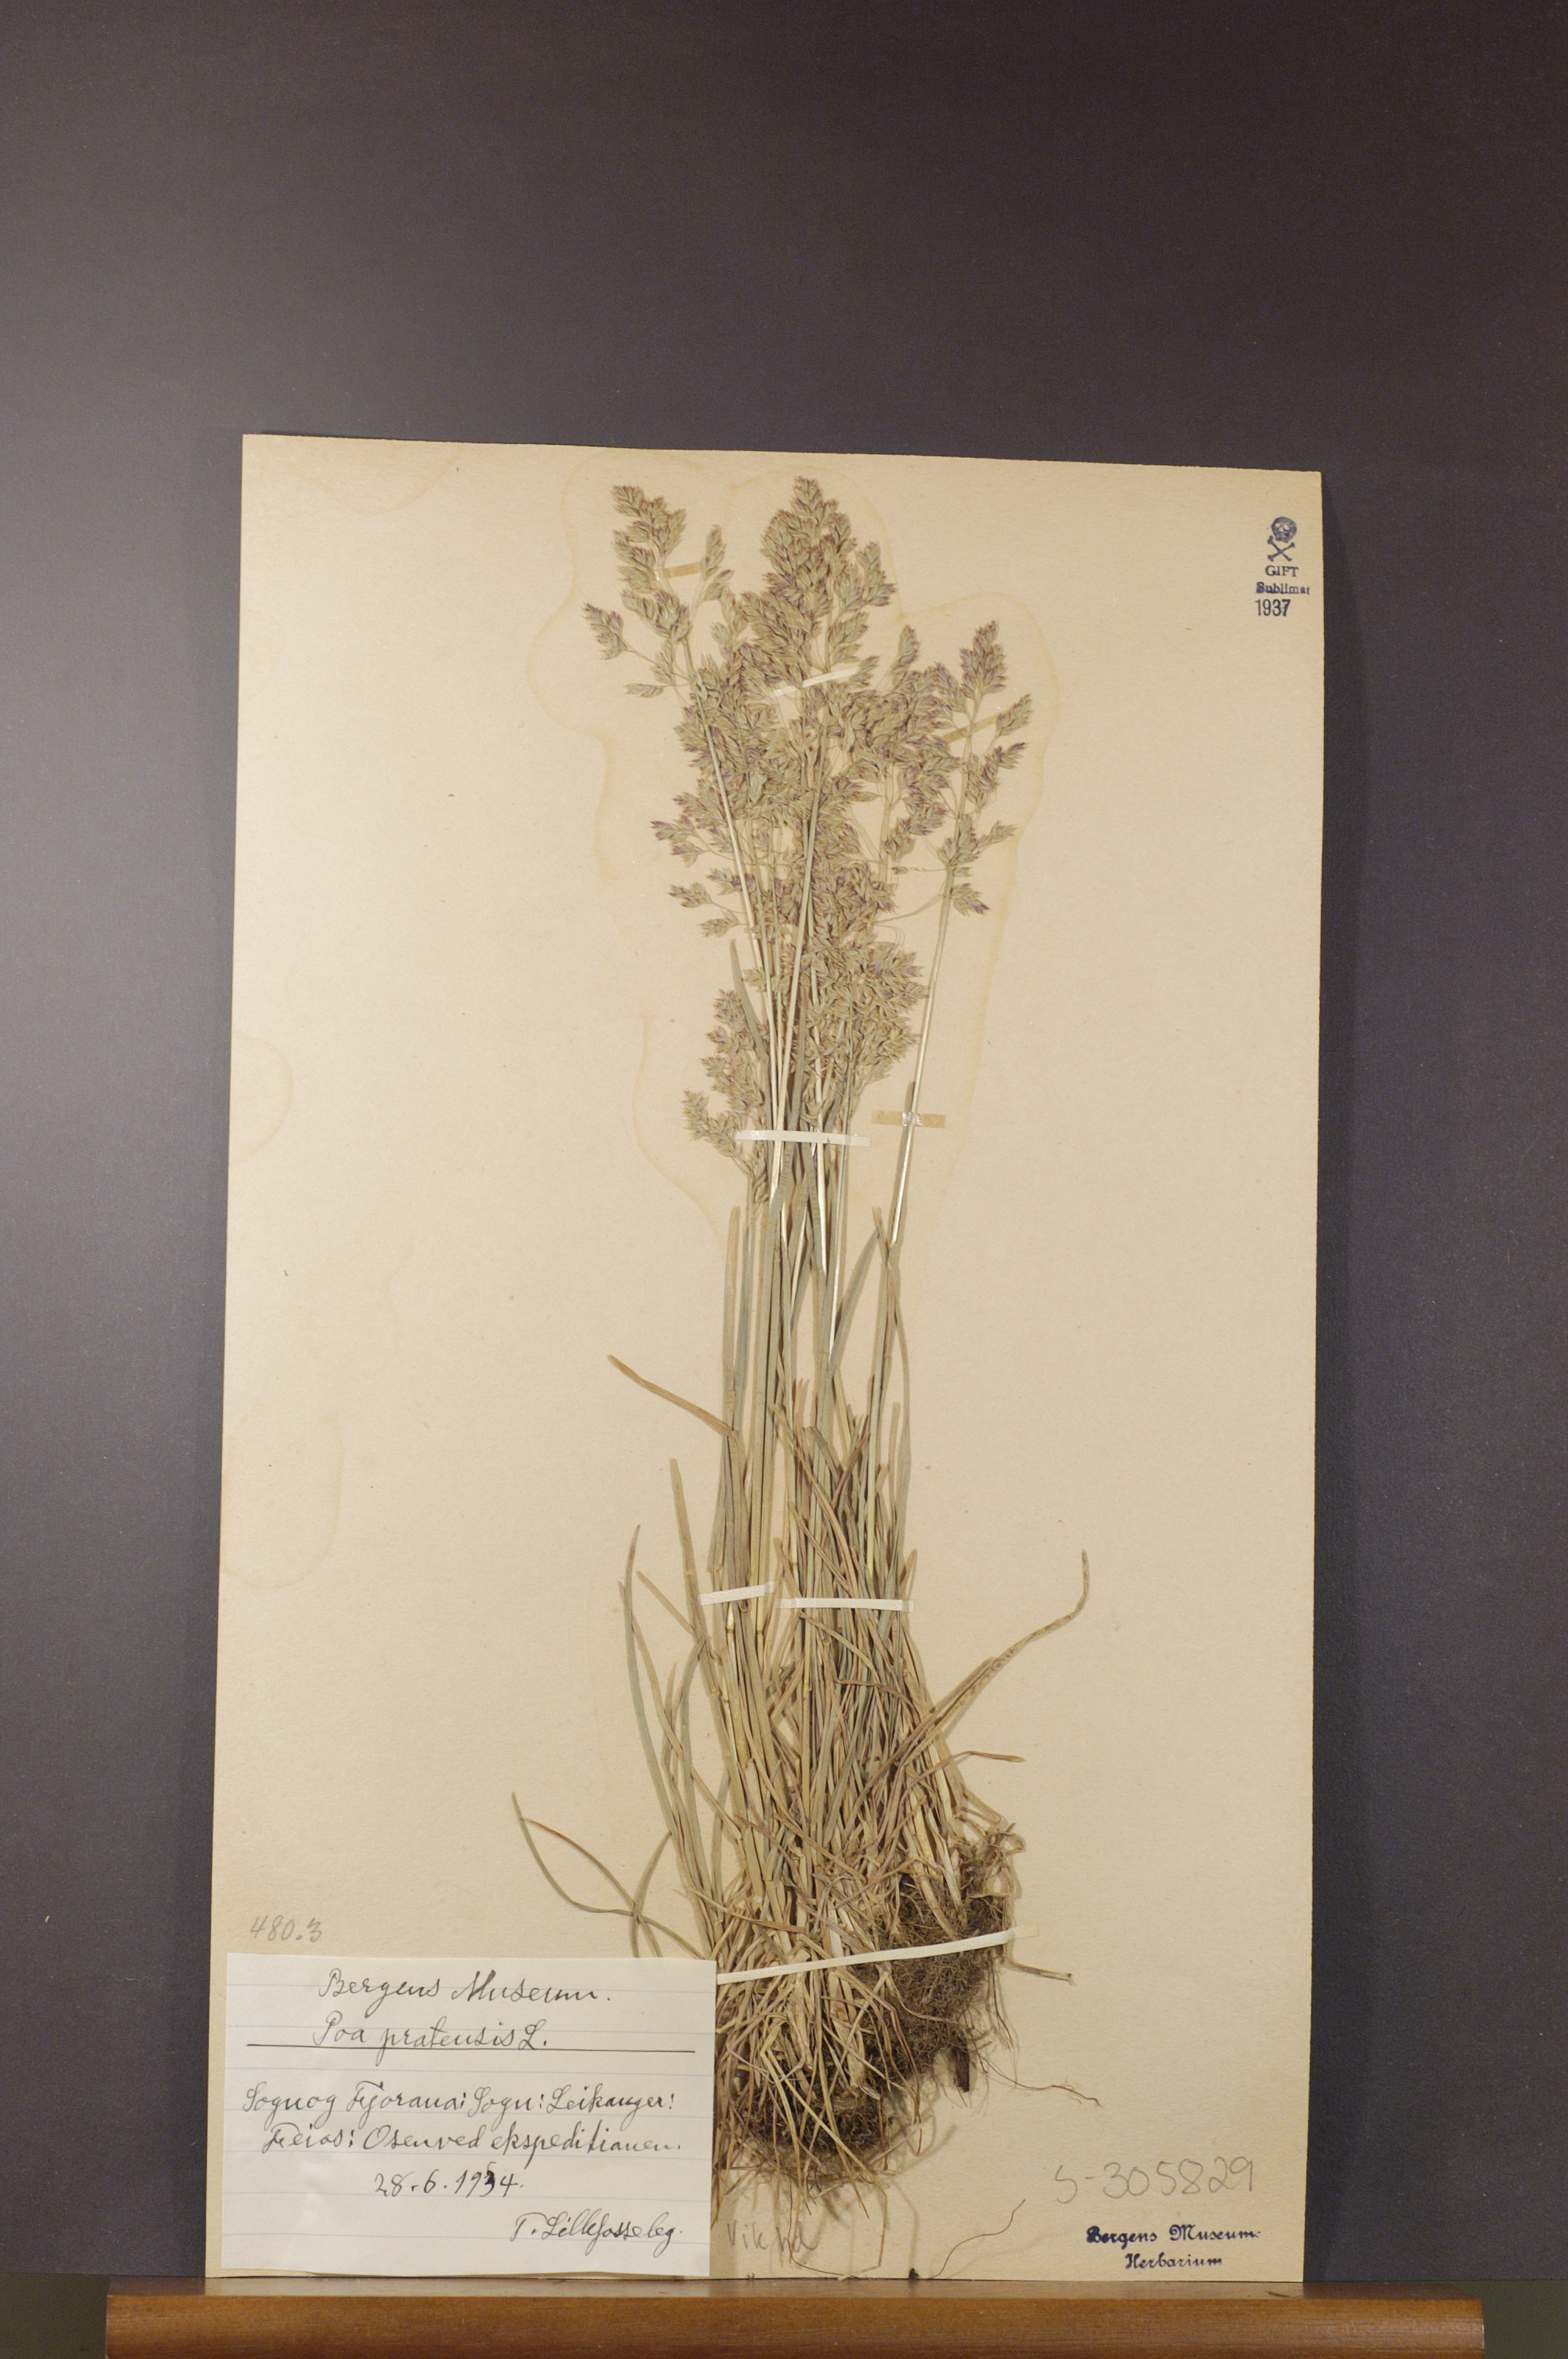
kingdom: Plantae
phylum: Tracheophyta
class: Liliopsida
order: Poales
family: Poaceae
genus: Poa
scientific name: Poa pratensis
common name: Kentucky bluegrass
